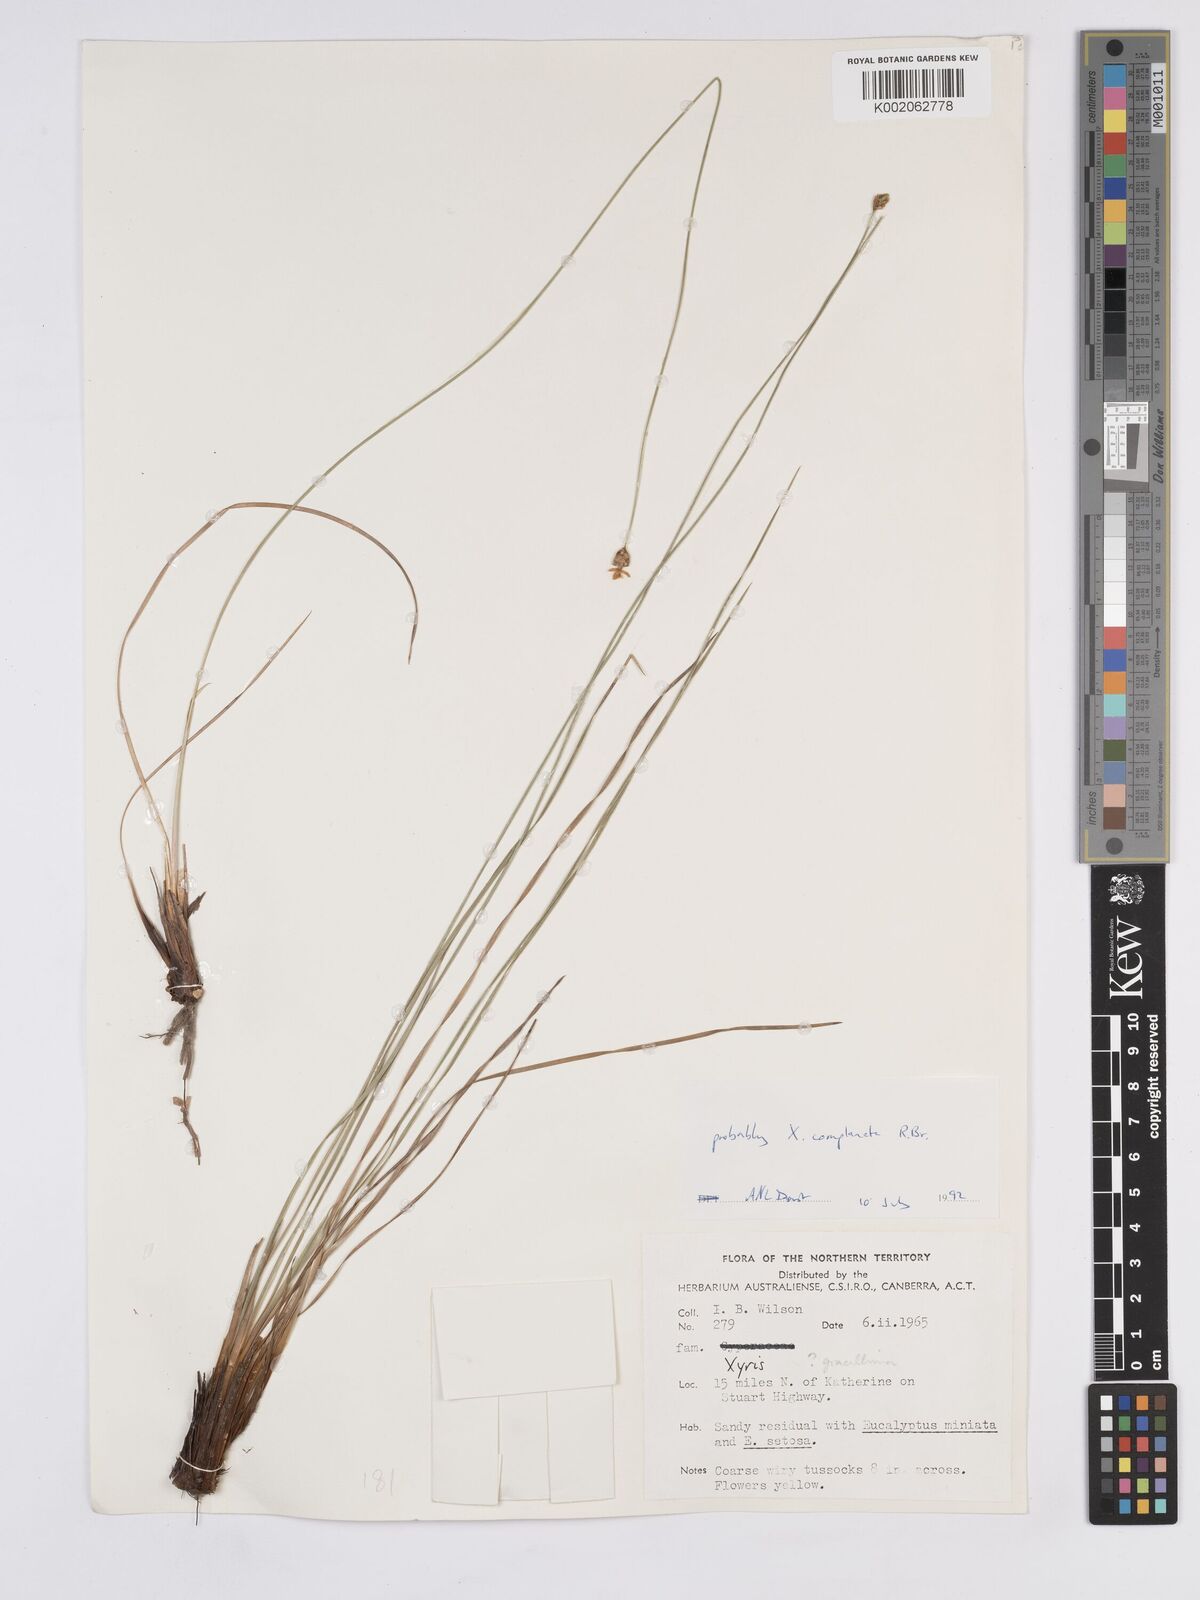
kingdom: Plantae
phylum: Tracheophyta
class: Liliopsida
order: Poales
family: Xyridaceae
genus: Xyris
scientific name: Xyris complanata
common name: Hawai'i yelloweyed grass
